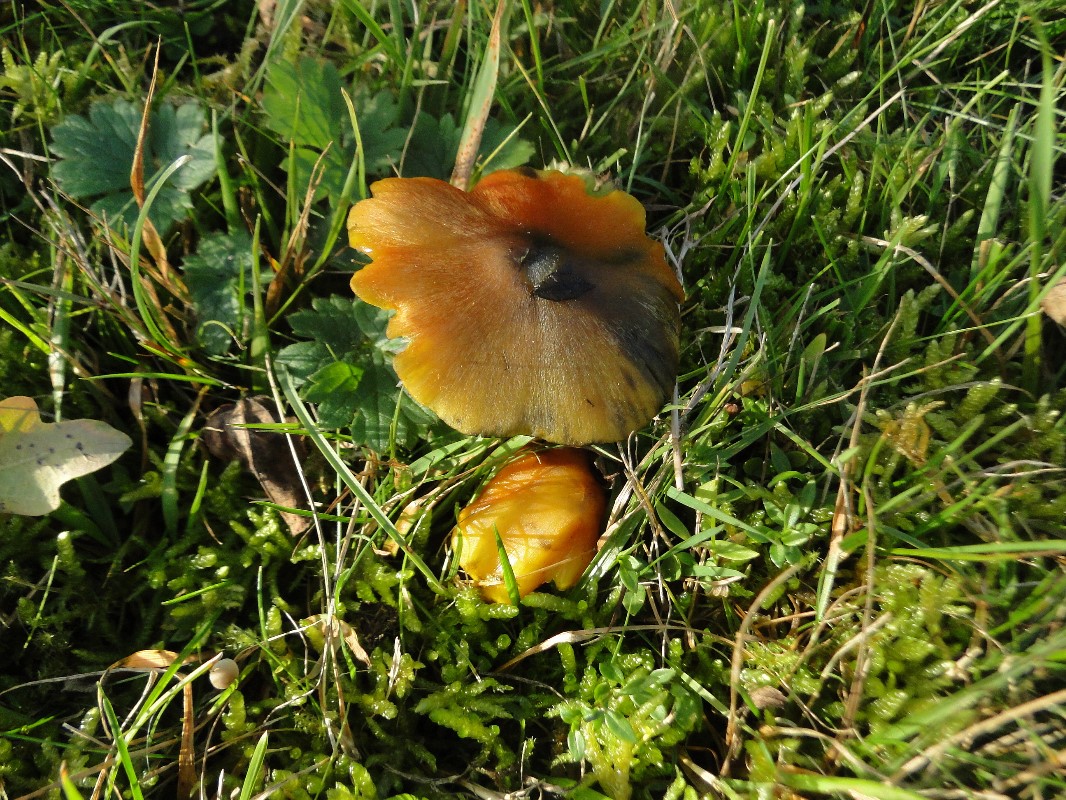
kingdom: Fungi
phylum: Basidiomycota
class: Agaricomycetes
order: Agaricales
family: Hygrophoraceae
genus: Hygrocybe
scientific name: Hygrocybe conica
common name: kegle-vokshat
